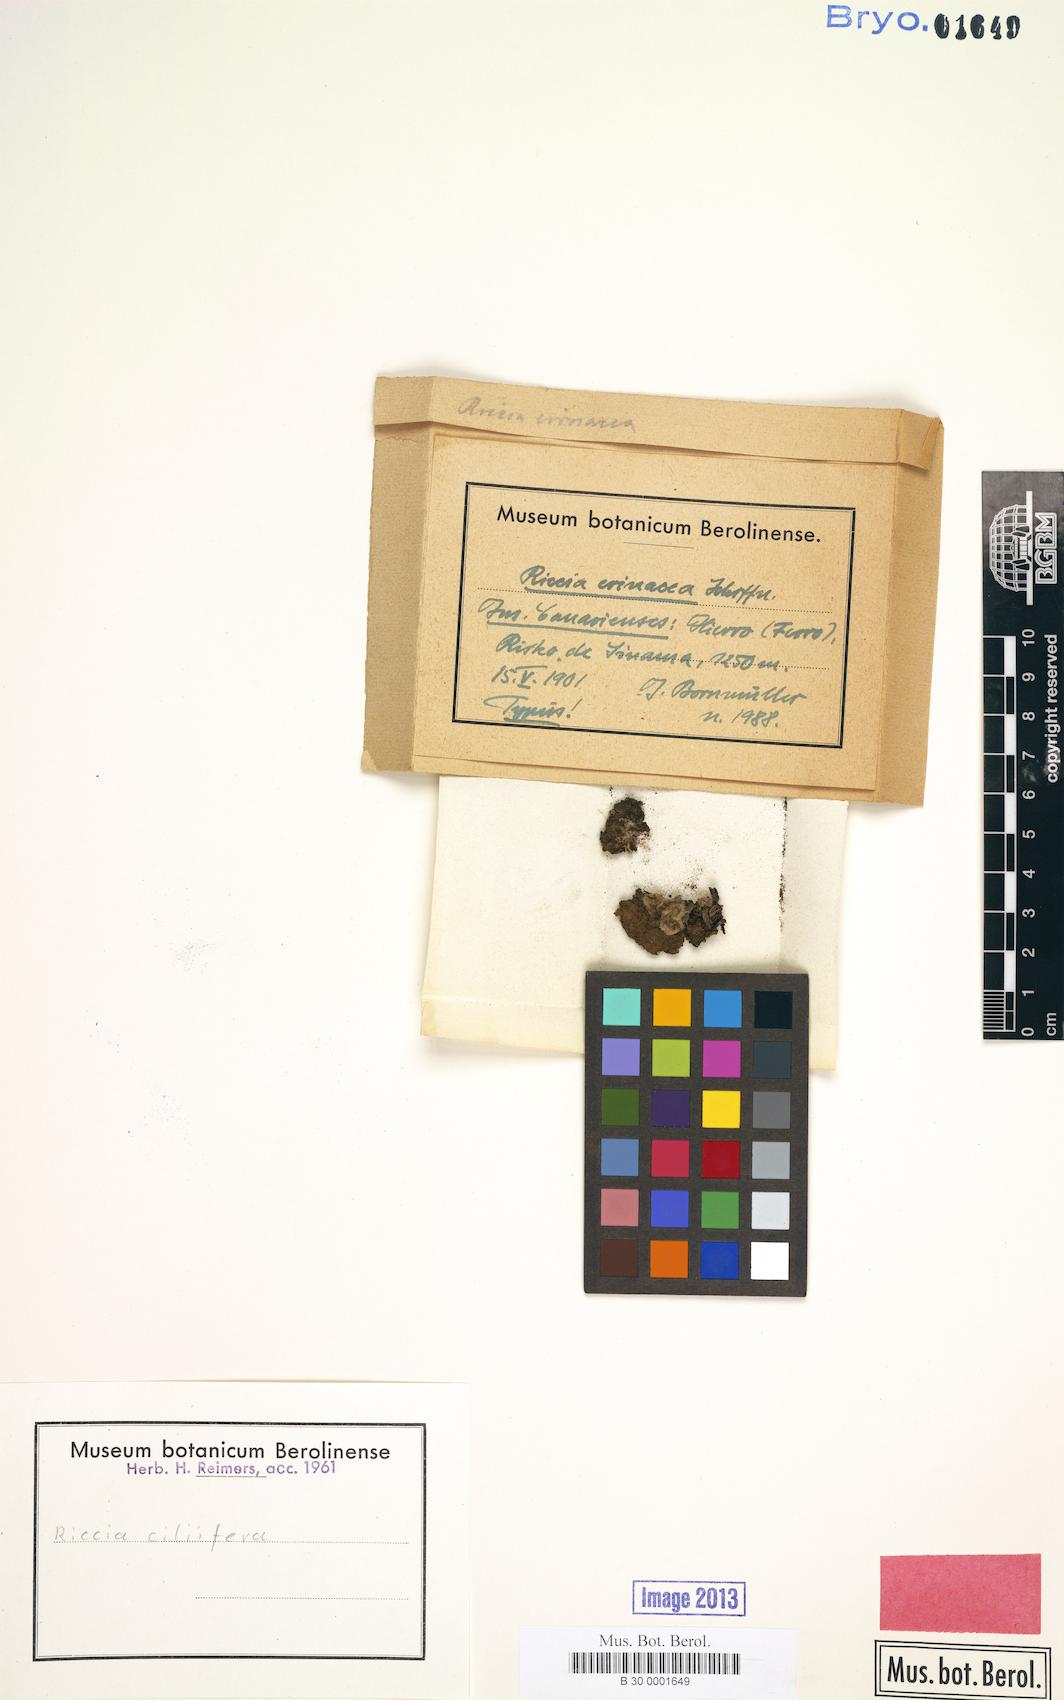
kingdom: Plantae
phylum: Marchantiophyta
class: Marchantiopsida
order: Marchantiales
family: Ricciaceae
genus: Riccia
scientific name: Riccia ciliifera
